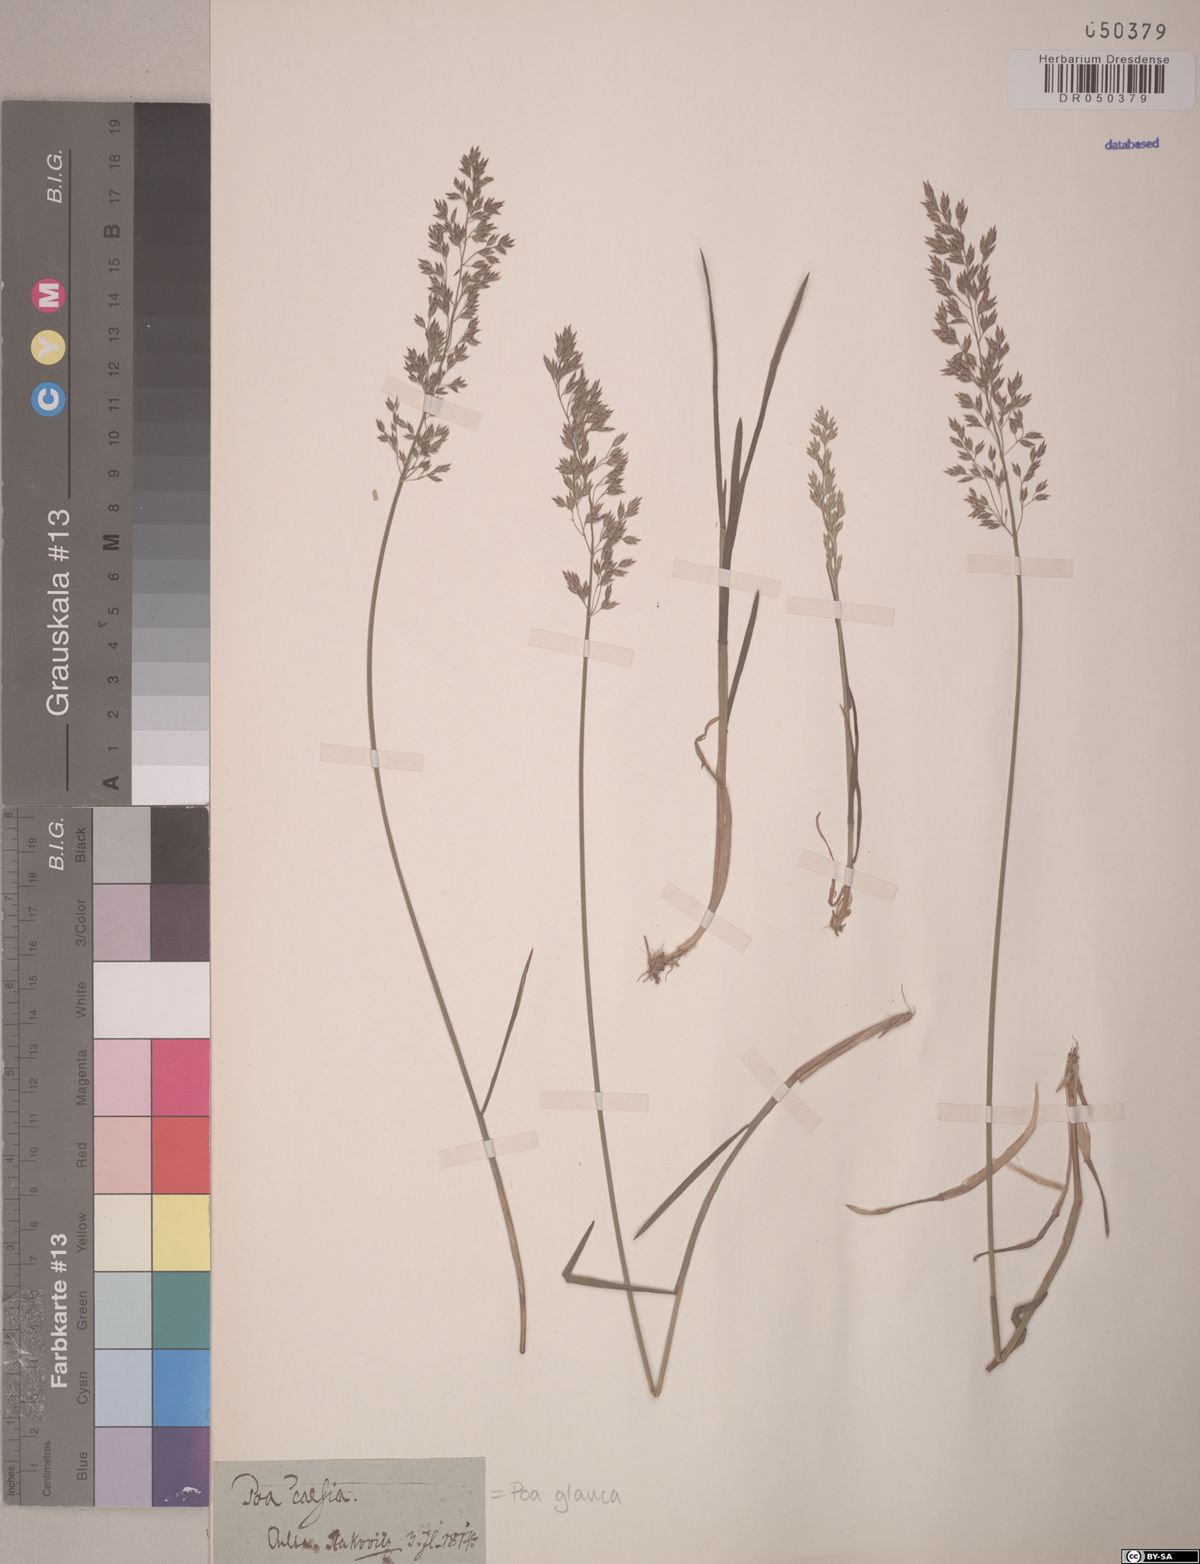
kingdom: Plantae
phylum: Tracheophyta
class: Liliopsida
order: Poales
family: Poaceae
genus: Poa
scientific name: Poa glauca
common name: Glaucous bluegrass
